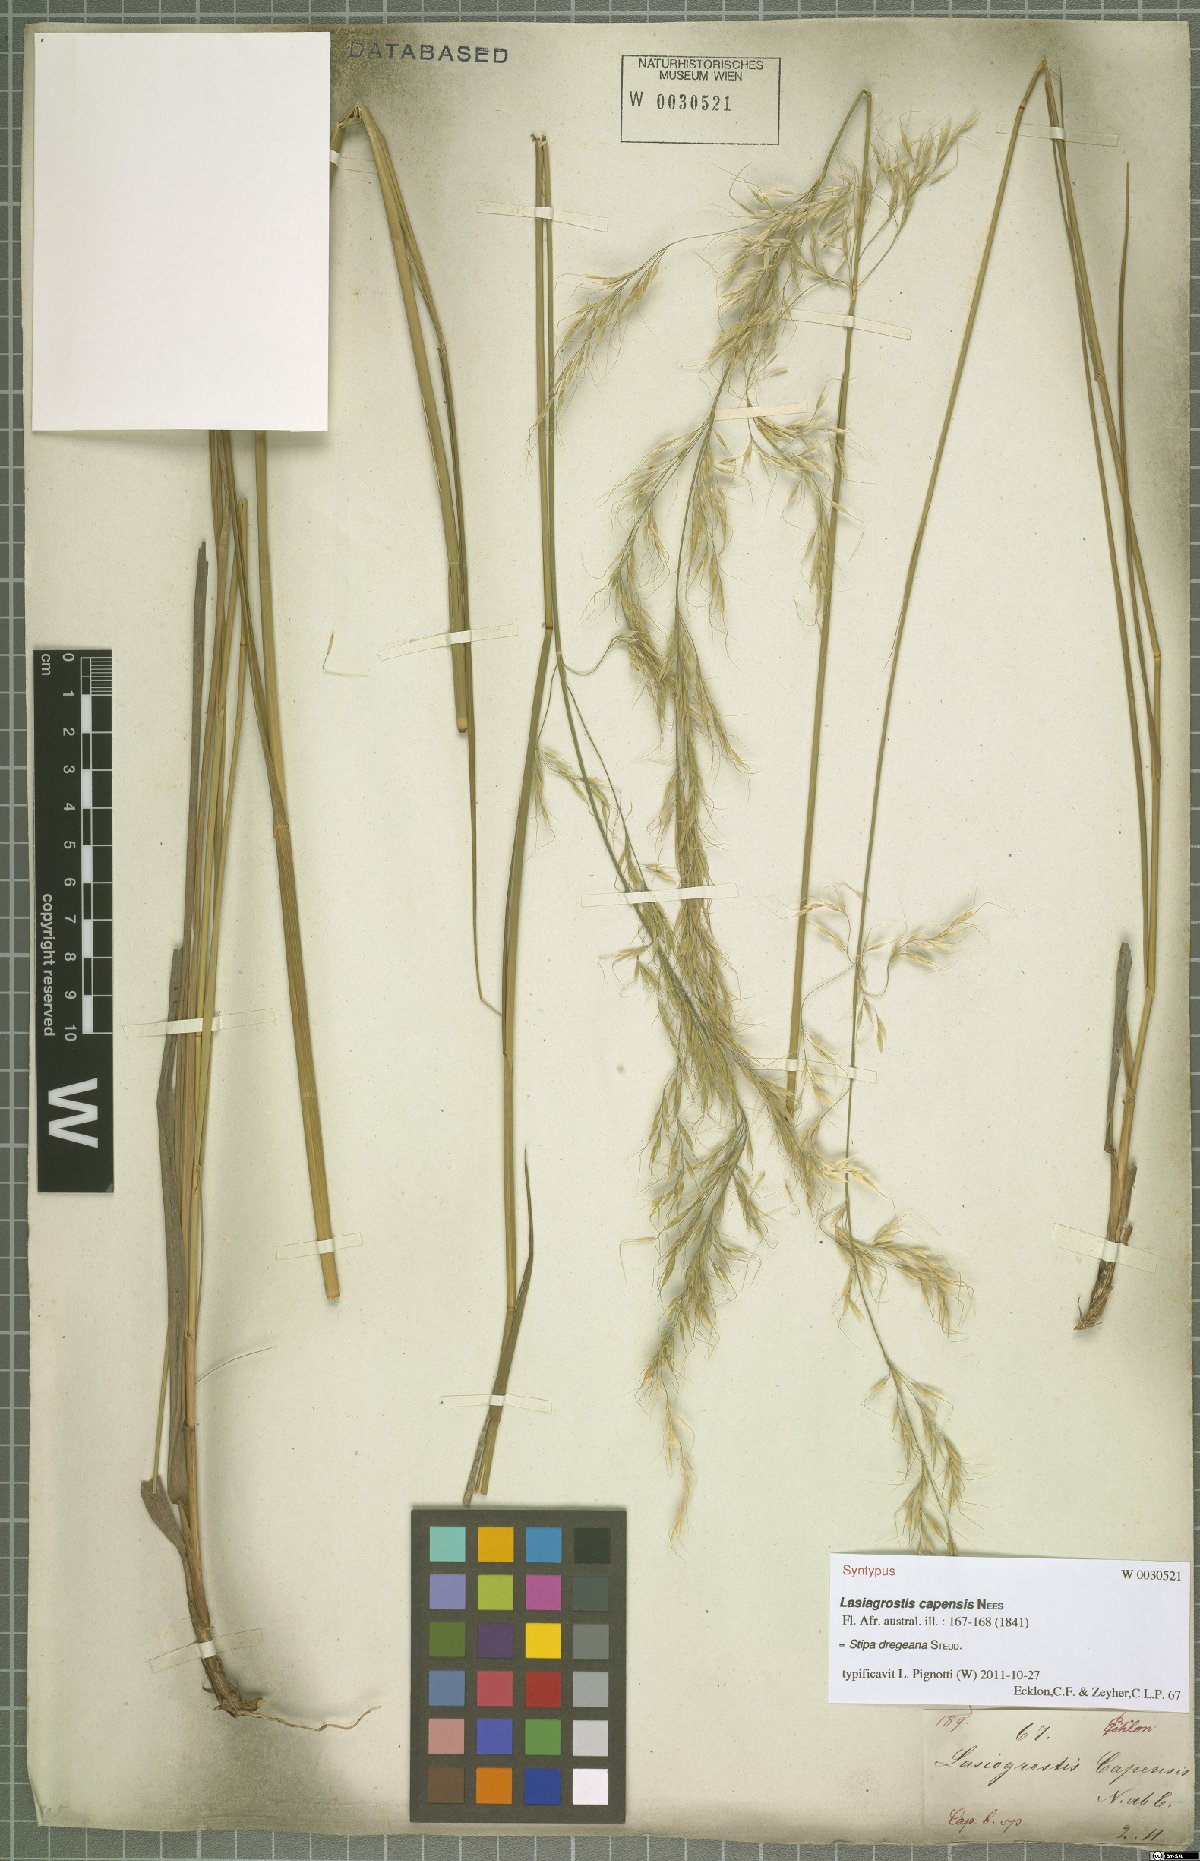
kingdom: Plantae
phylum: Tracheophyta
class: Liliopsida
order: Poales
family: Poaceae
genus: Stipa
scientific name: Stipa dregeana
